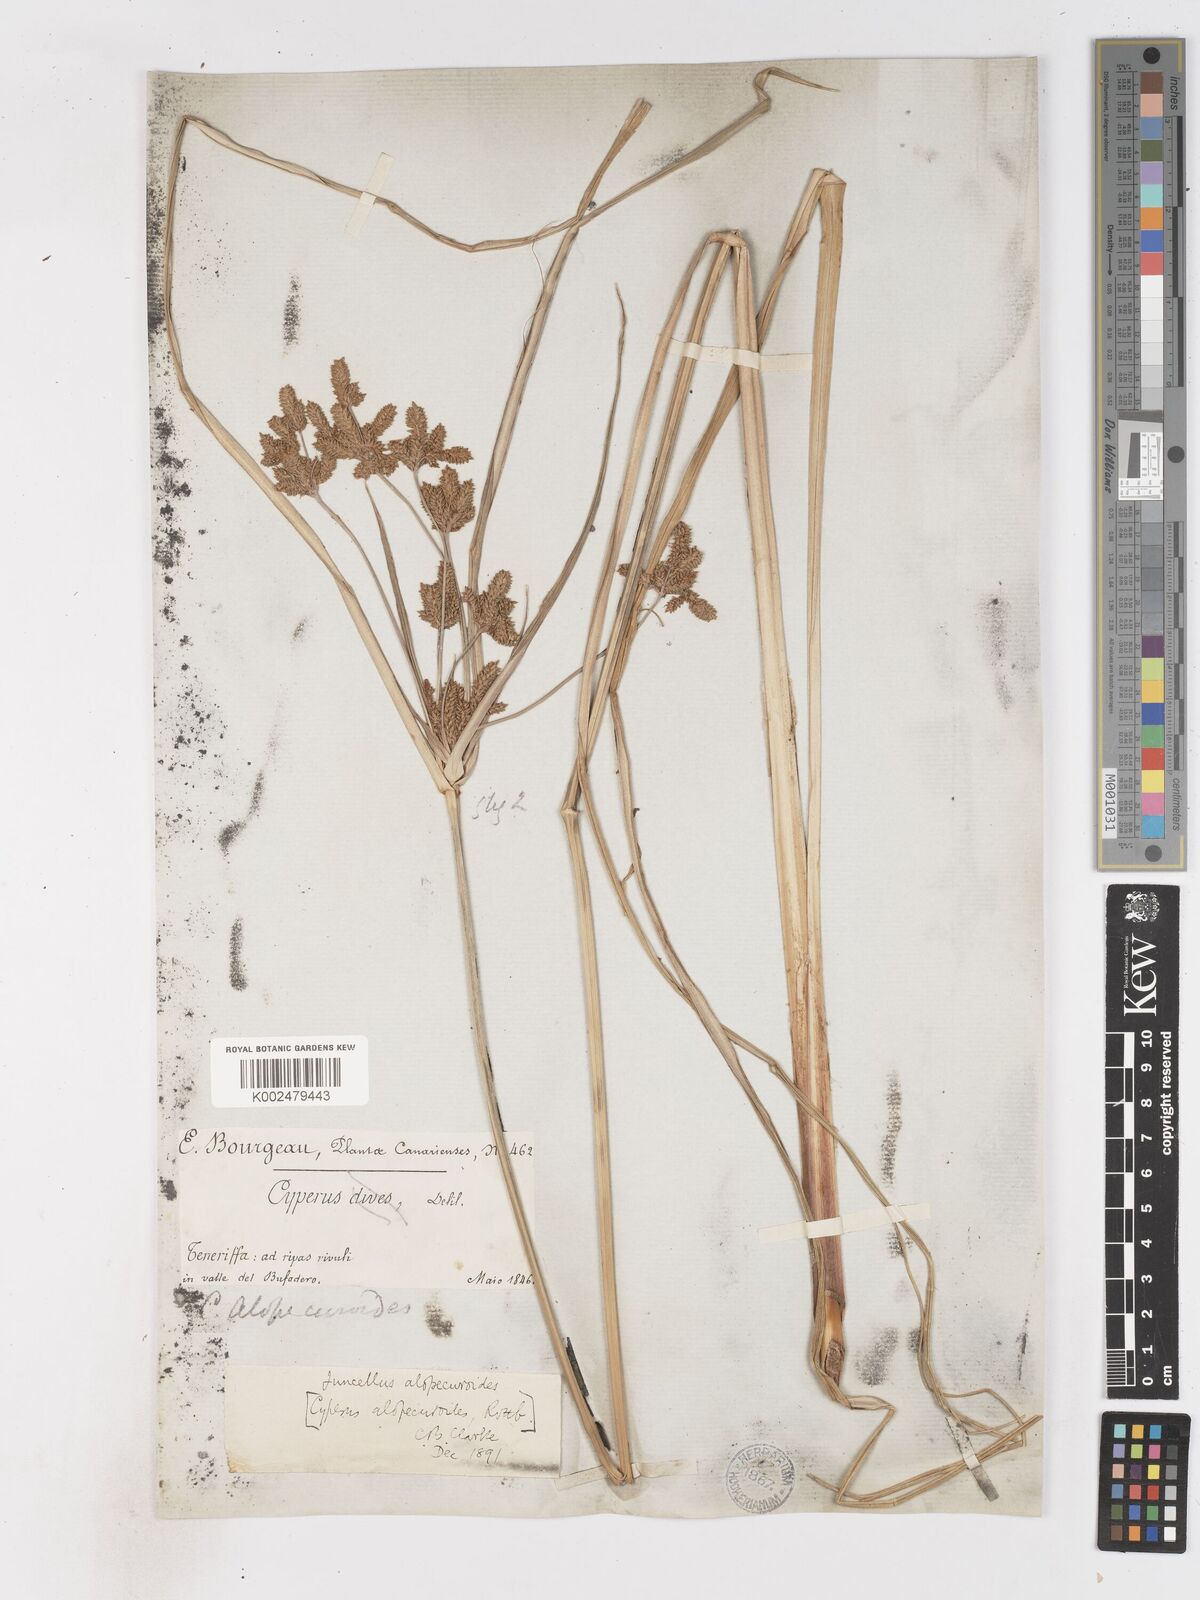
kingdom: Plantae
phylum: Tracheophyta
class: Liliopsida
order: Poales
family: Cyperaceae
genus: Cyperus
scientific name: Cyperus alopecuroides
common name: Foxtail flatsedge
